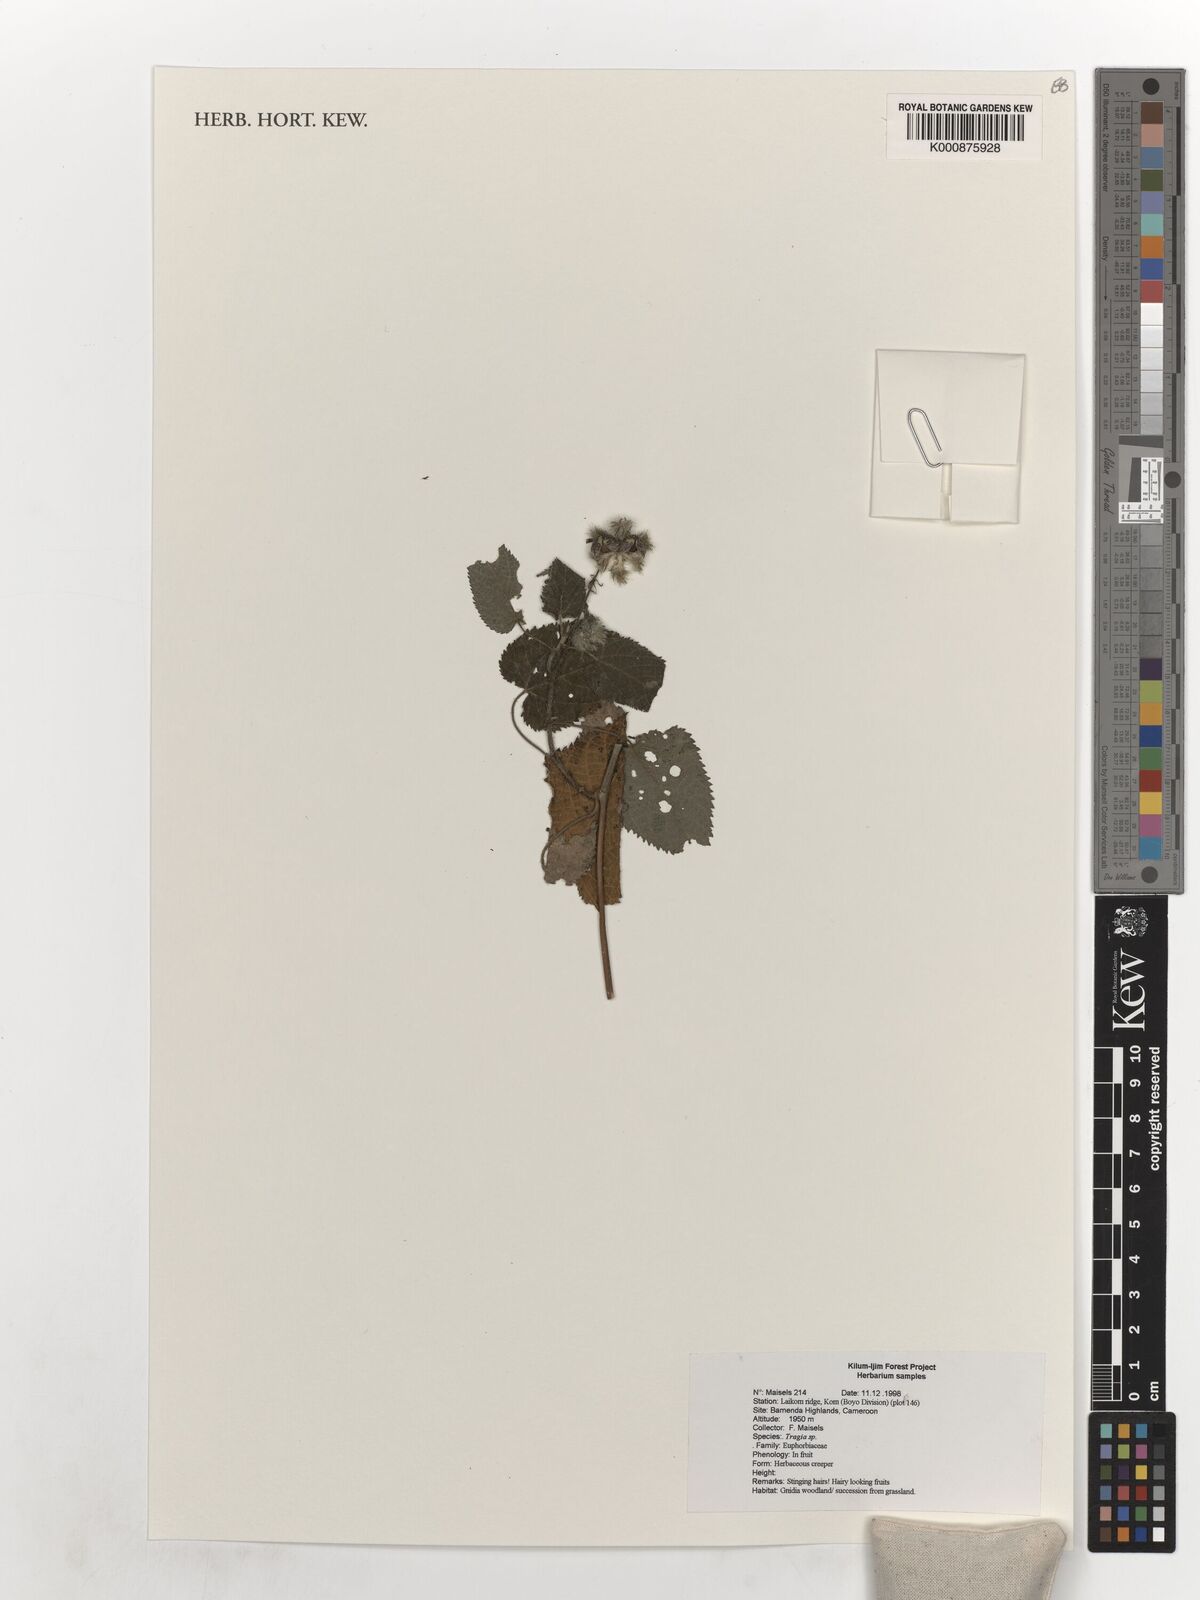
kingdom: Plantae
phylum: Tracheophyta
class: Magnoliopsida
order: Malpighiales
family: Euphorbiaceae
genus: Tragia
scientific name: Tragia
